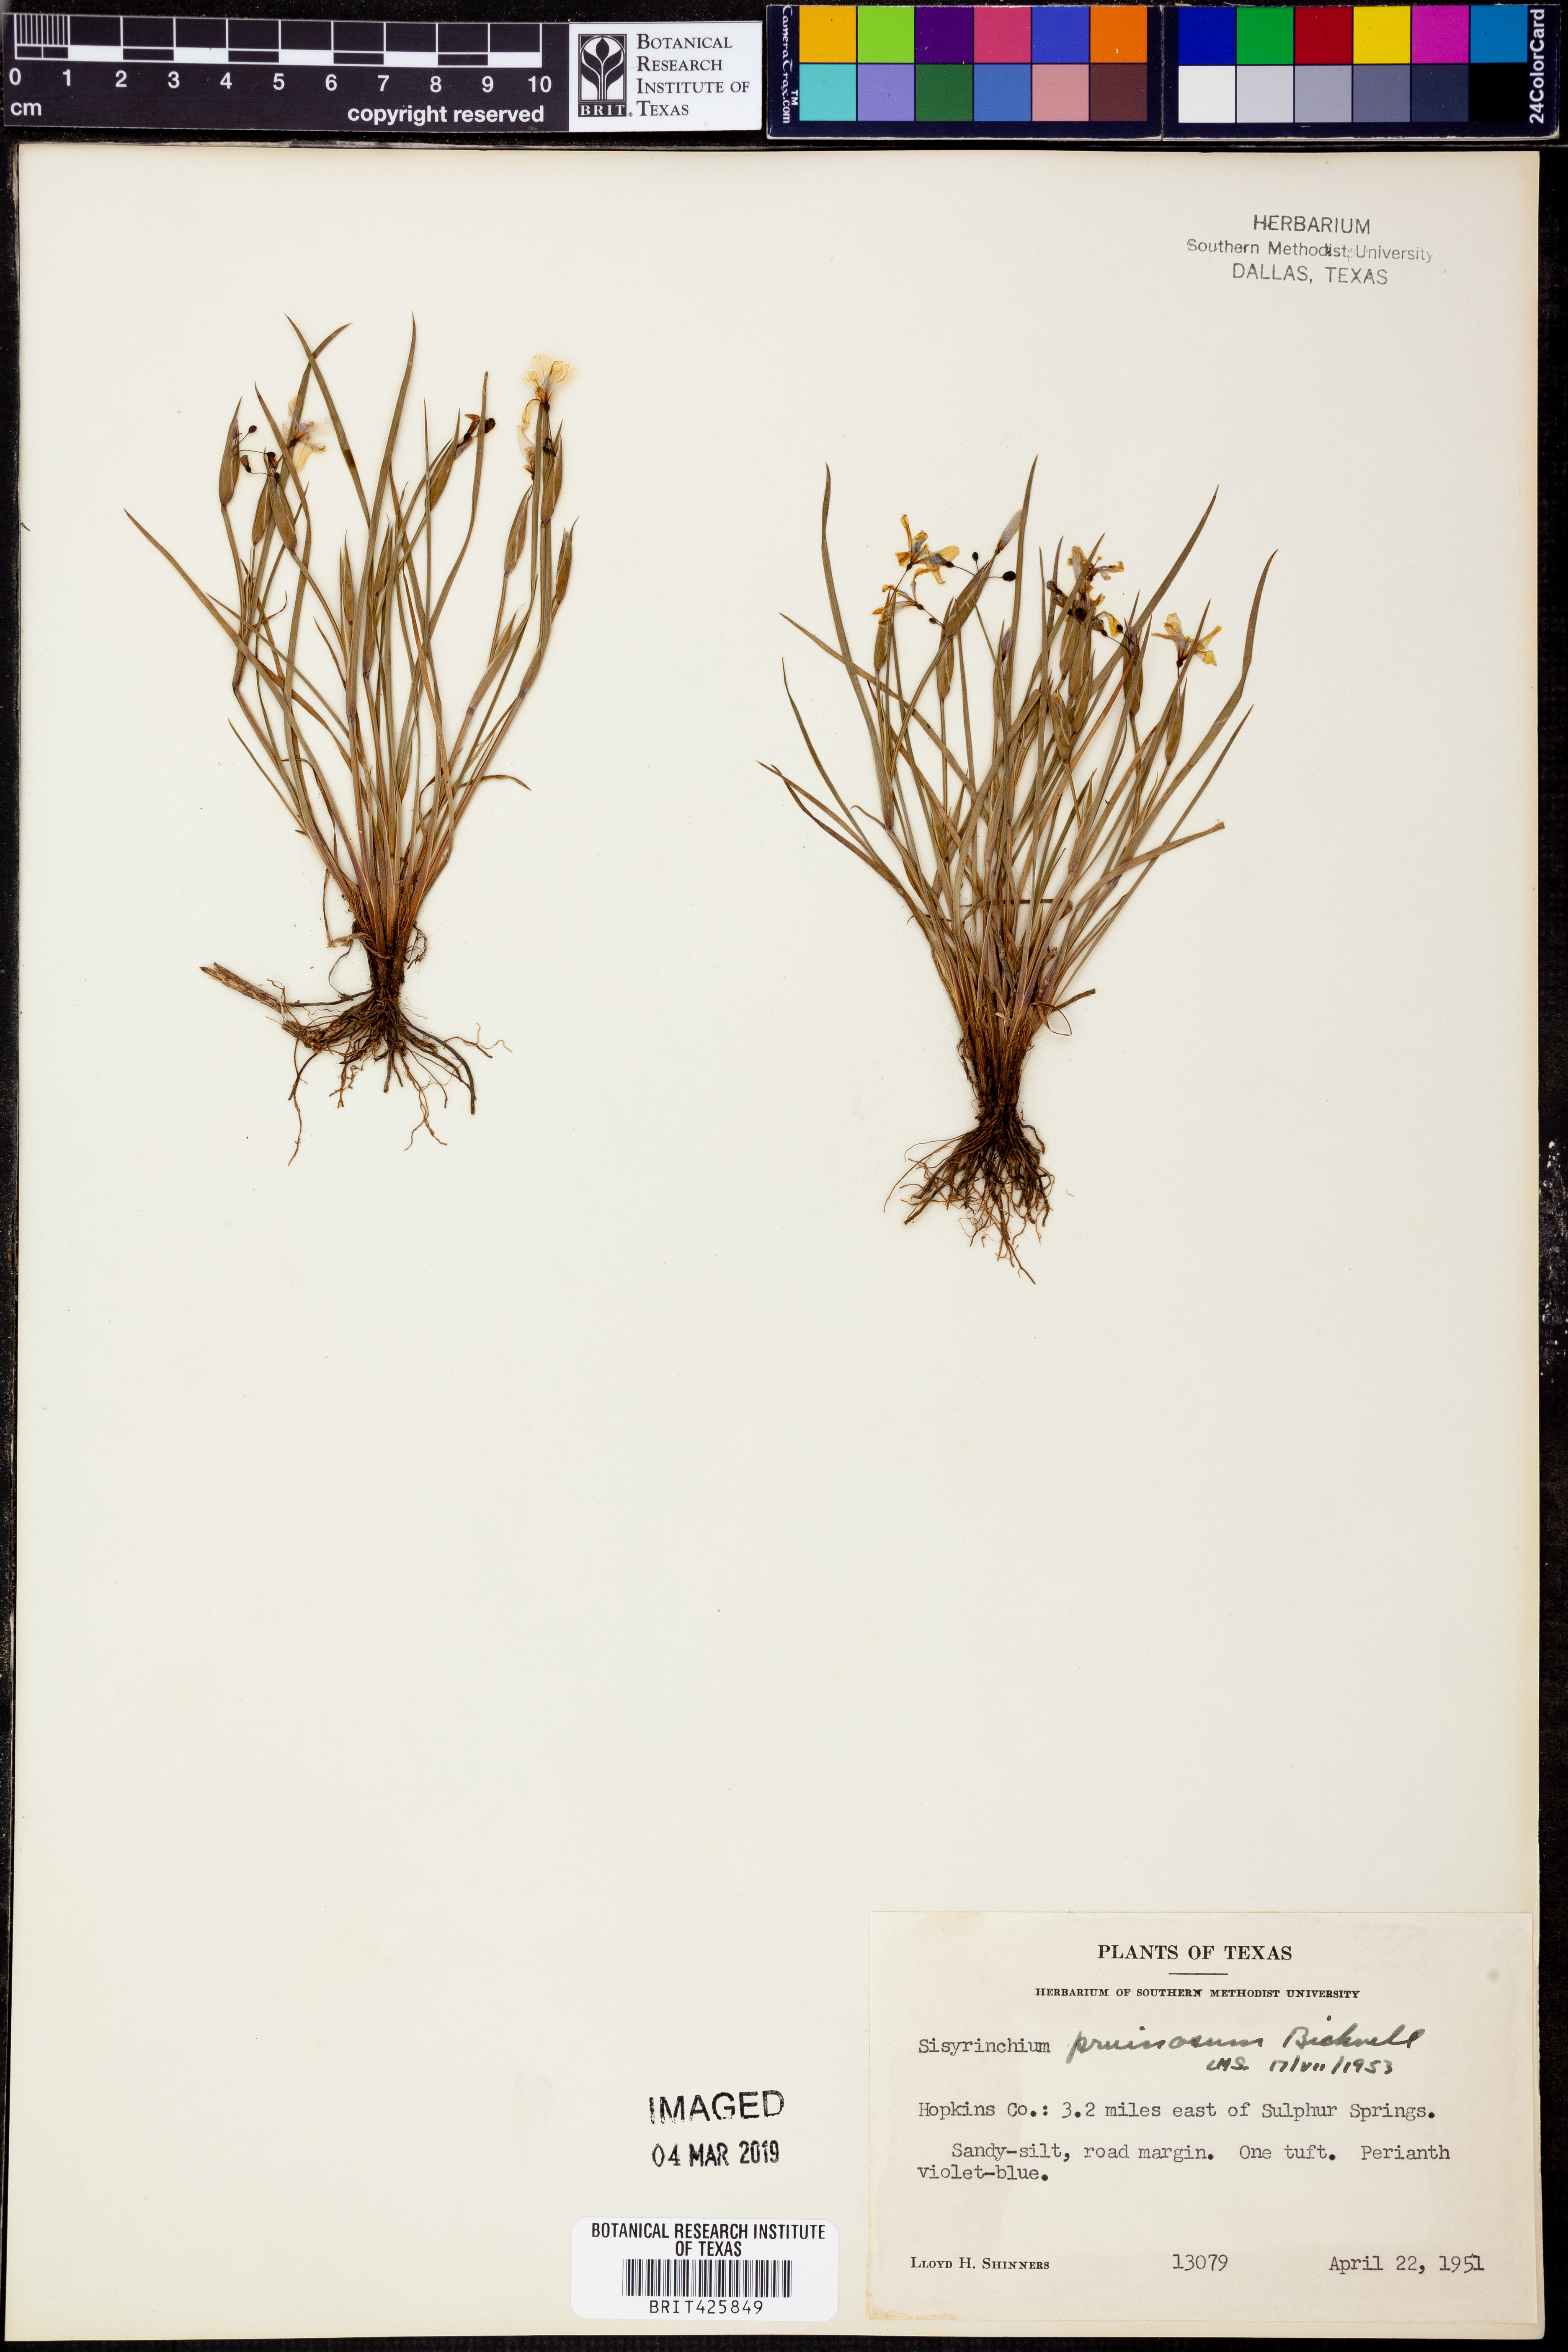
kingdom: Plantae
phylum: Tracheophyta
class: Liliopsida
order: Asparagales
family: Iridaceae
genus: Sisyrinchium
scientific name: Sisyrinchium pruinosum
